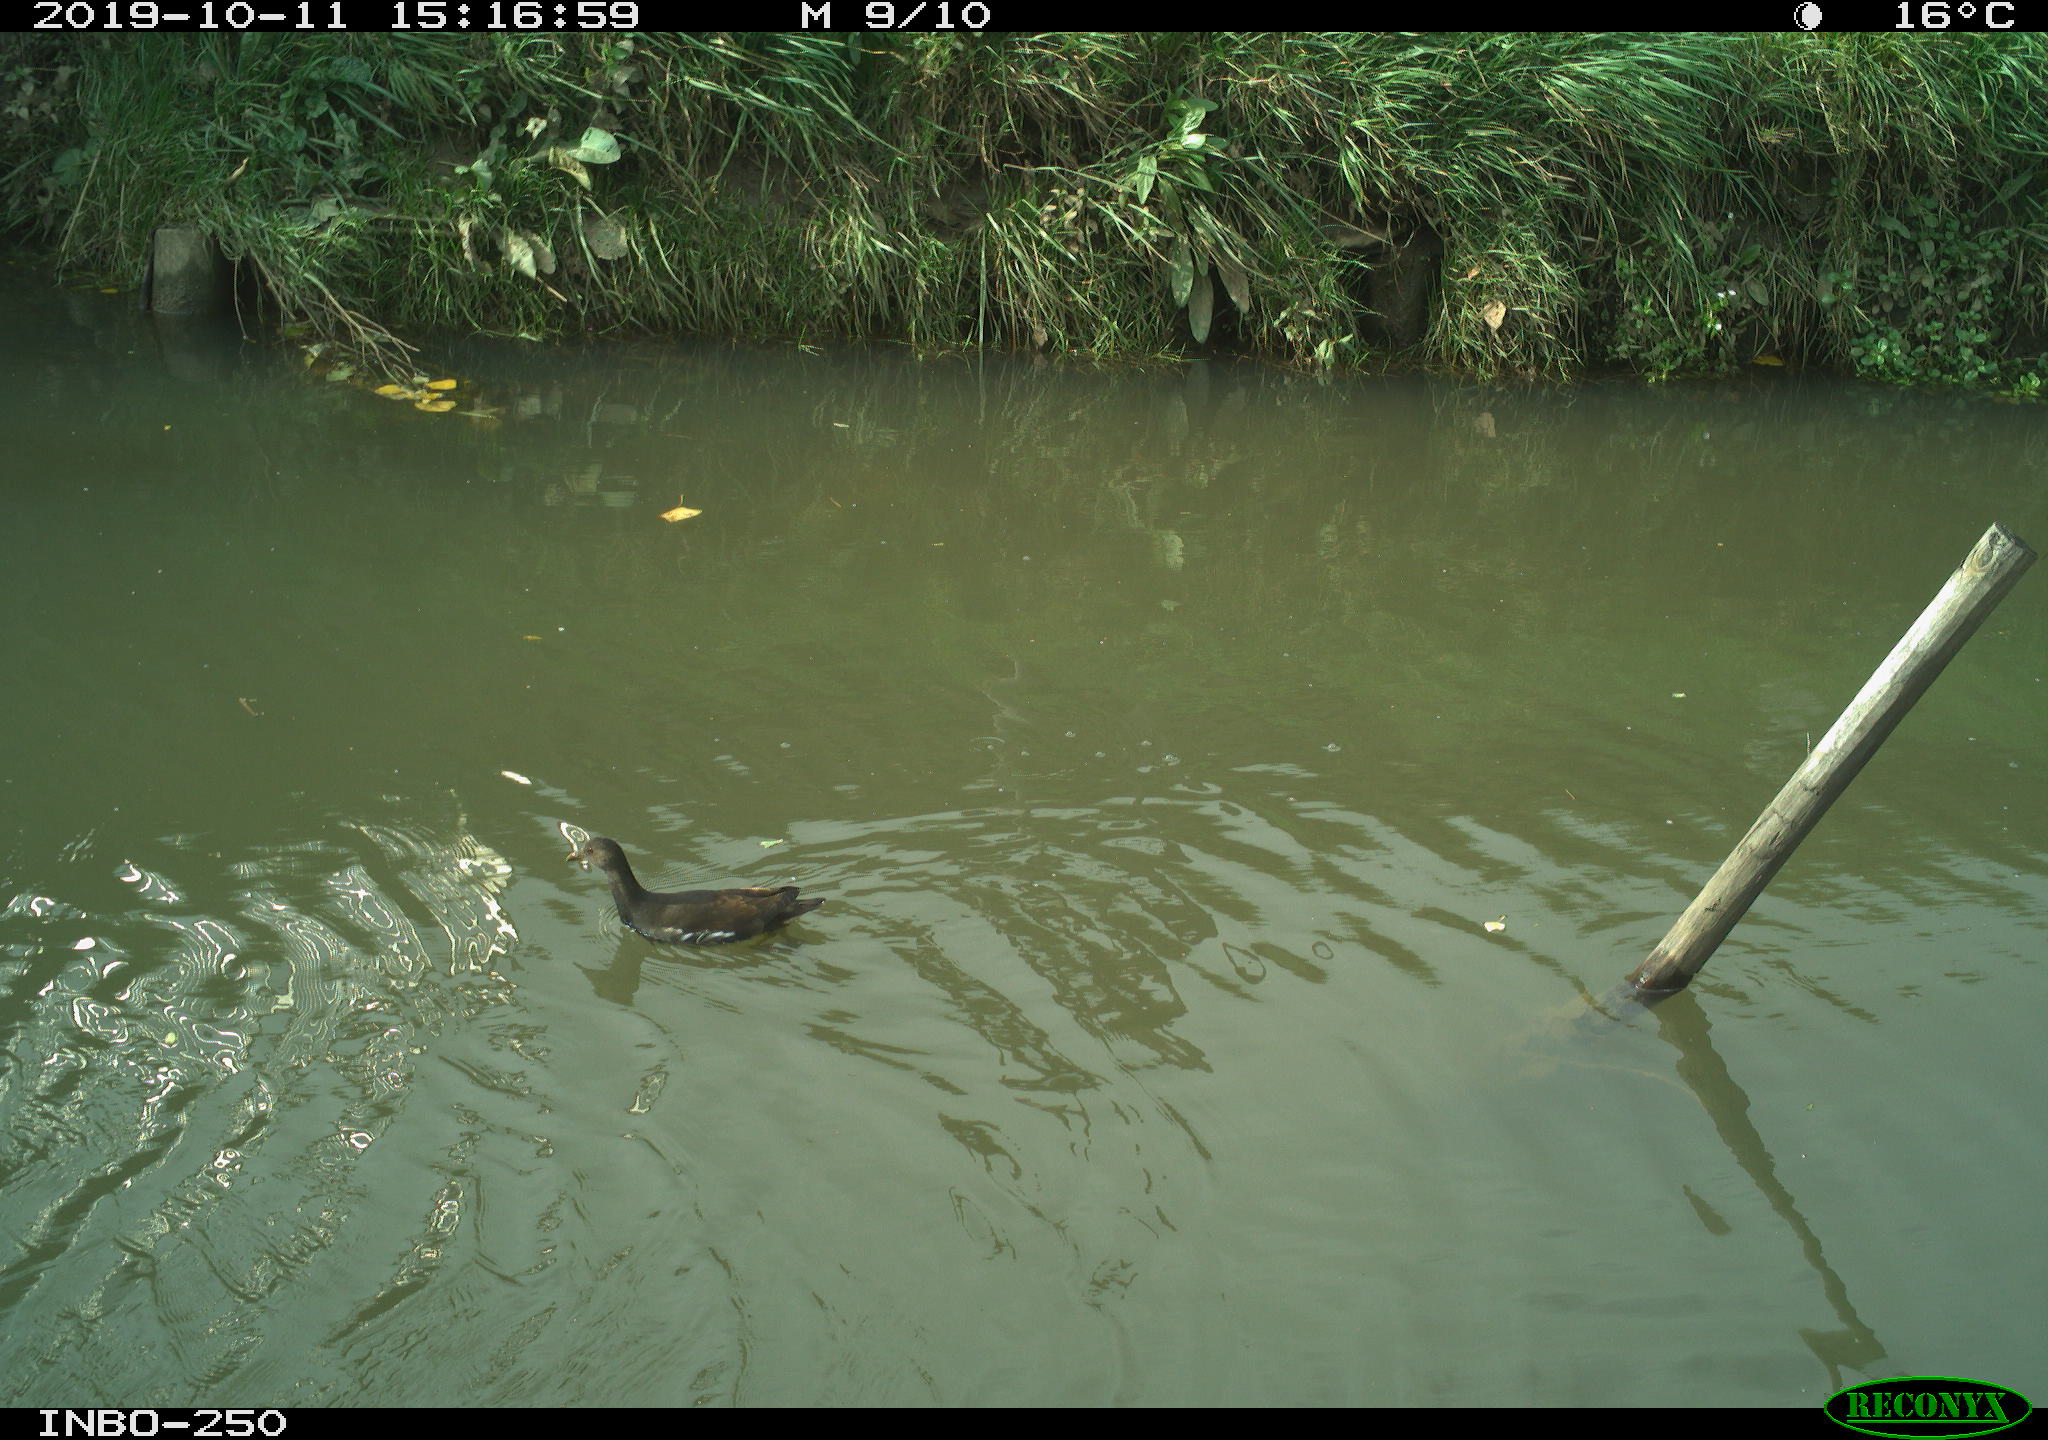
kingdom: Animalia
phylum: Chordata
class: Aves
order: Gruiformes
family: Rallidae
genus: Gallinula
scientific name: Gallinula chloropus
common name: Common moorhen
